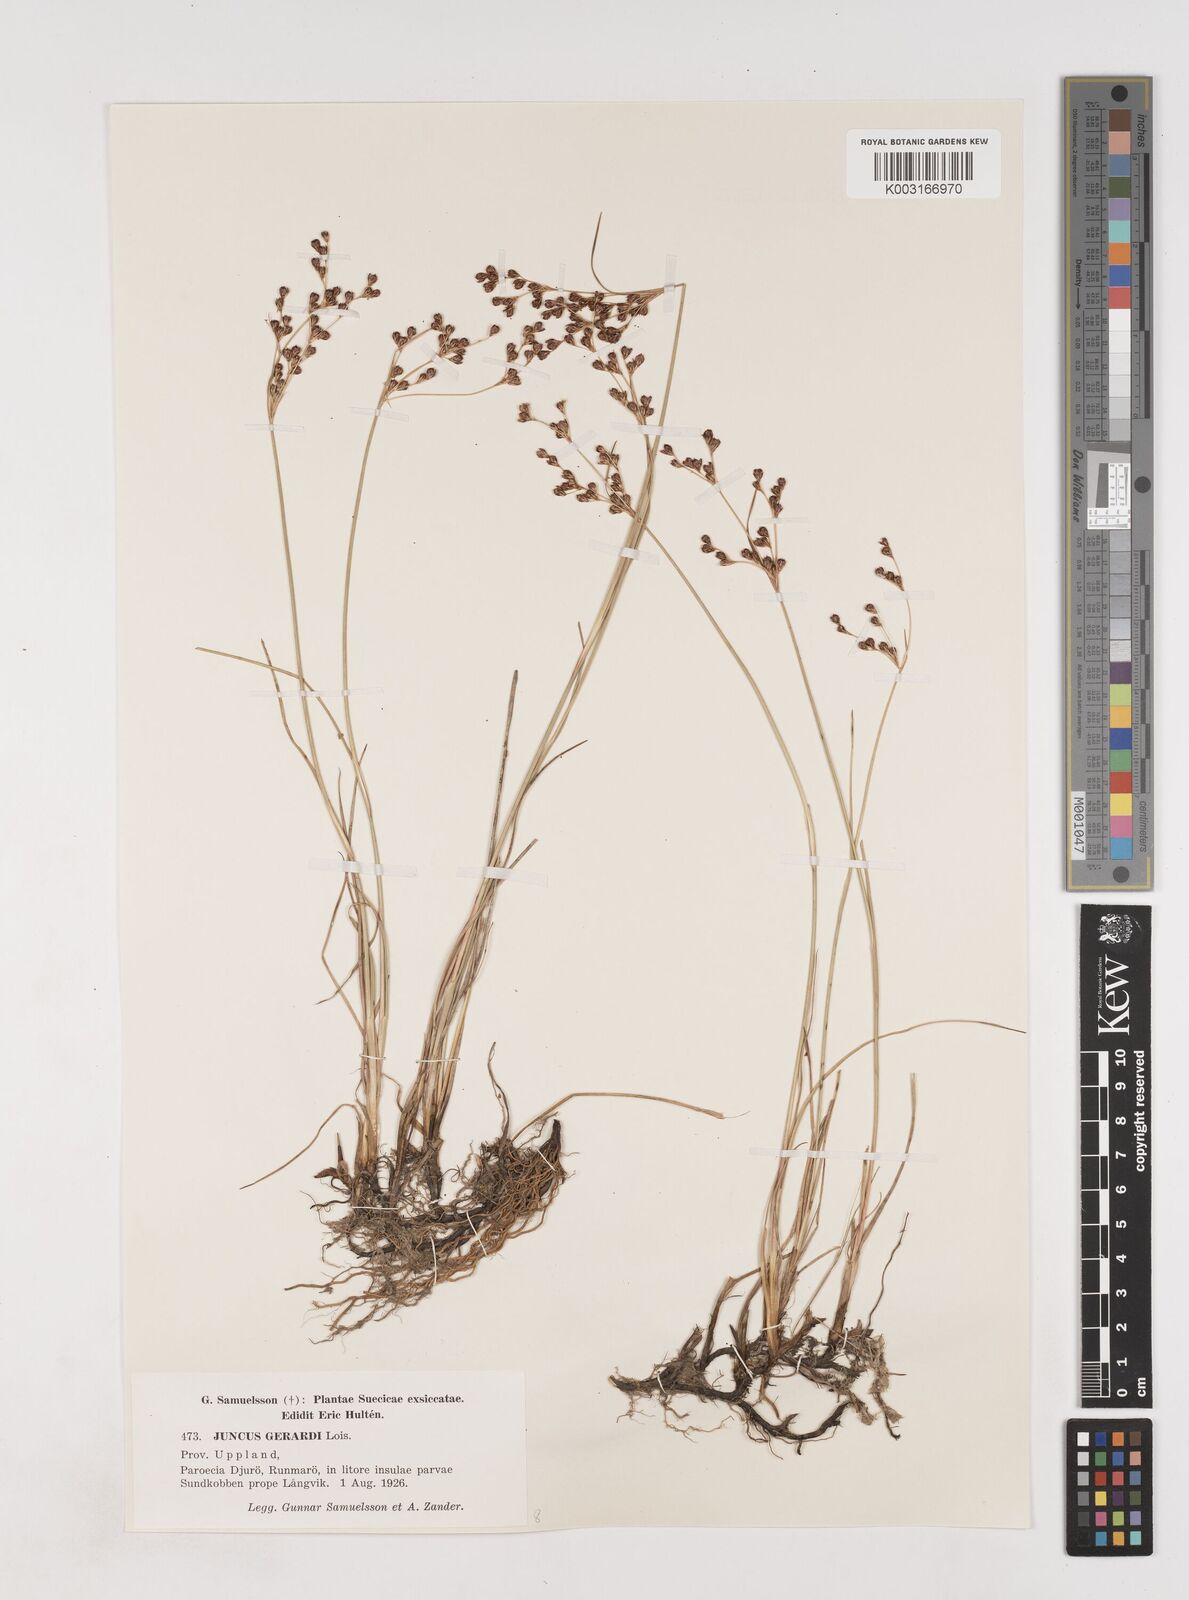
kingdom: Plantae
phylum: Tracheophyta
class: Liliopsida
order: Poales
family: Juncaceae
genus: Juncus
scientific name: Juncus gerardi
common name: Saltmarsh rush
